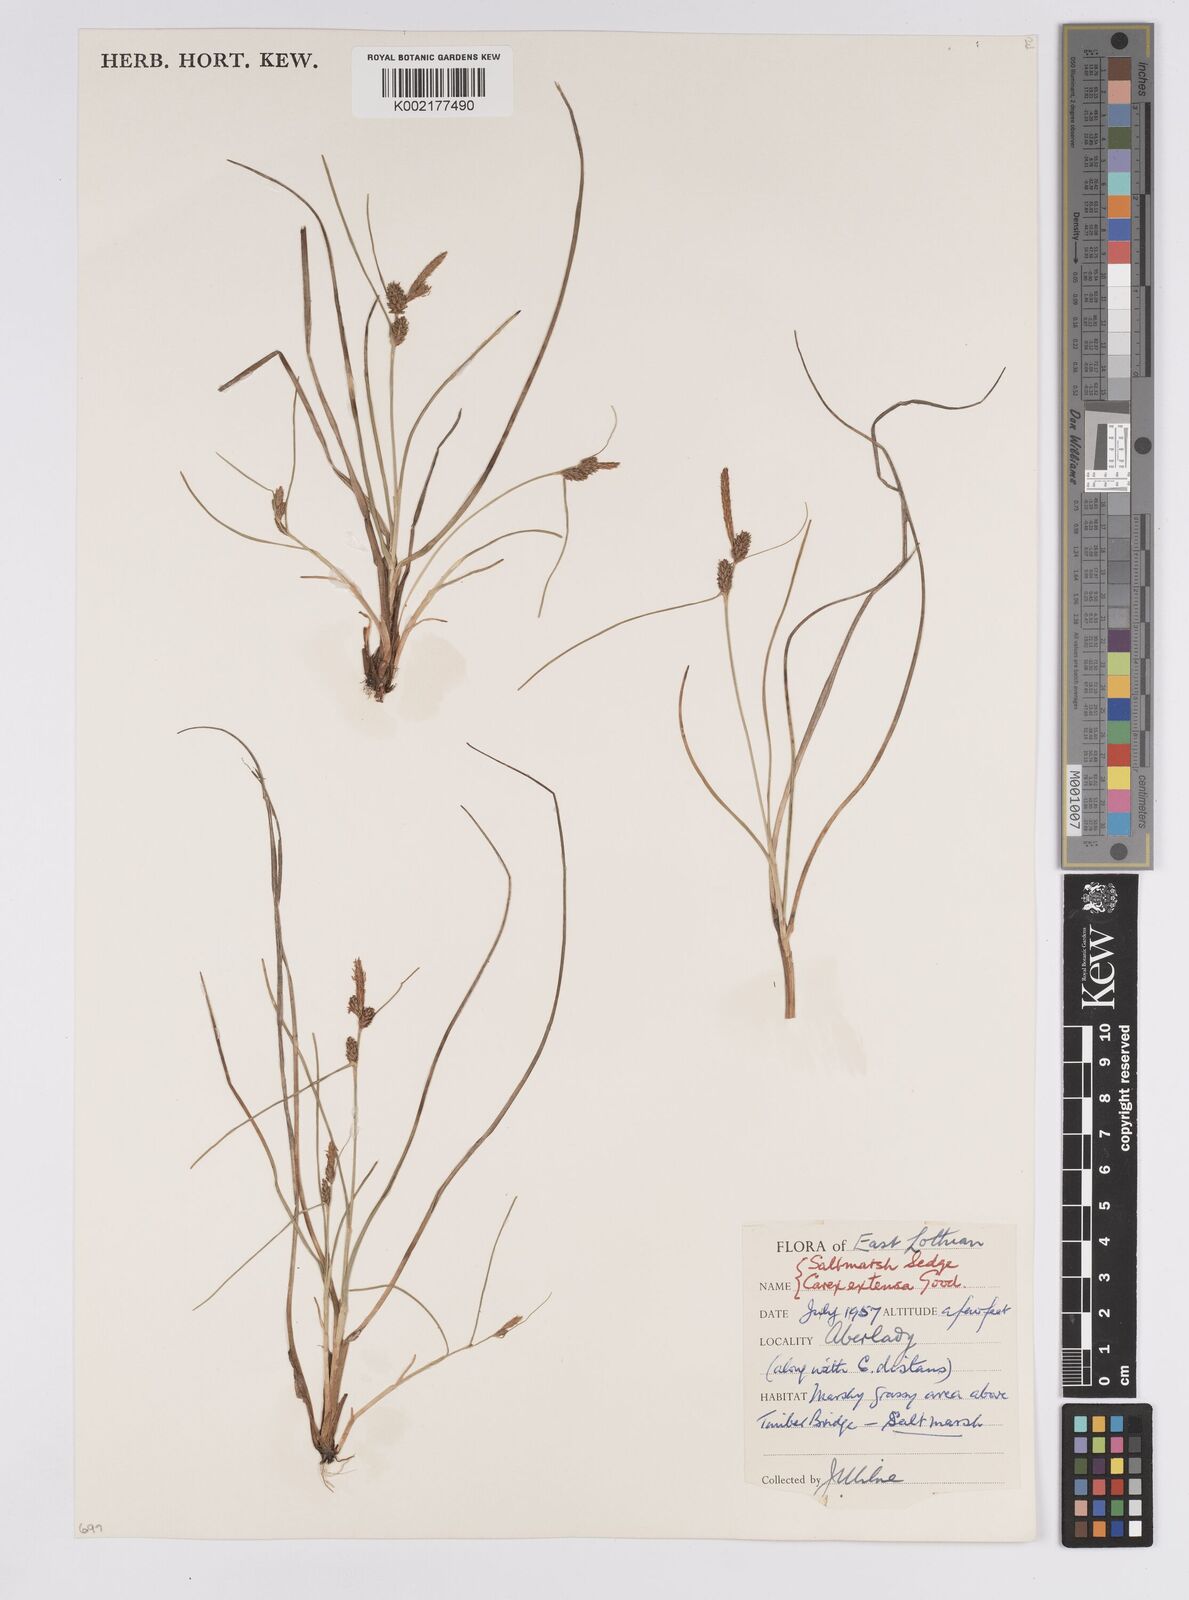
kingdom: Plantae
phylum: Tracheophyta
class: Liliopsida
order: Poales
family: Cyperaceae
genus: Carex
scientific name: Carex extensa
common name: Long-bracted sedge
